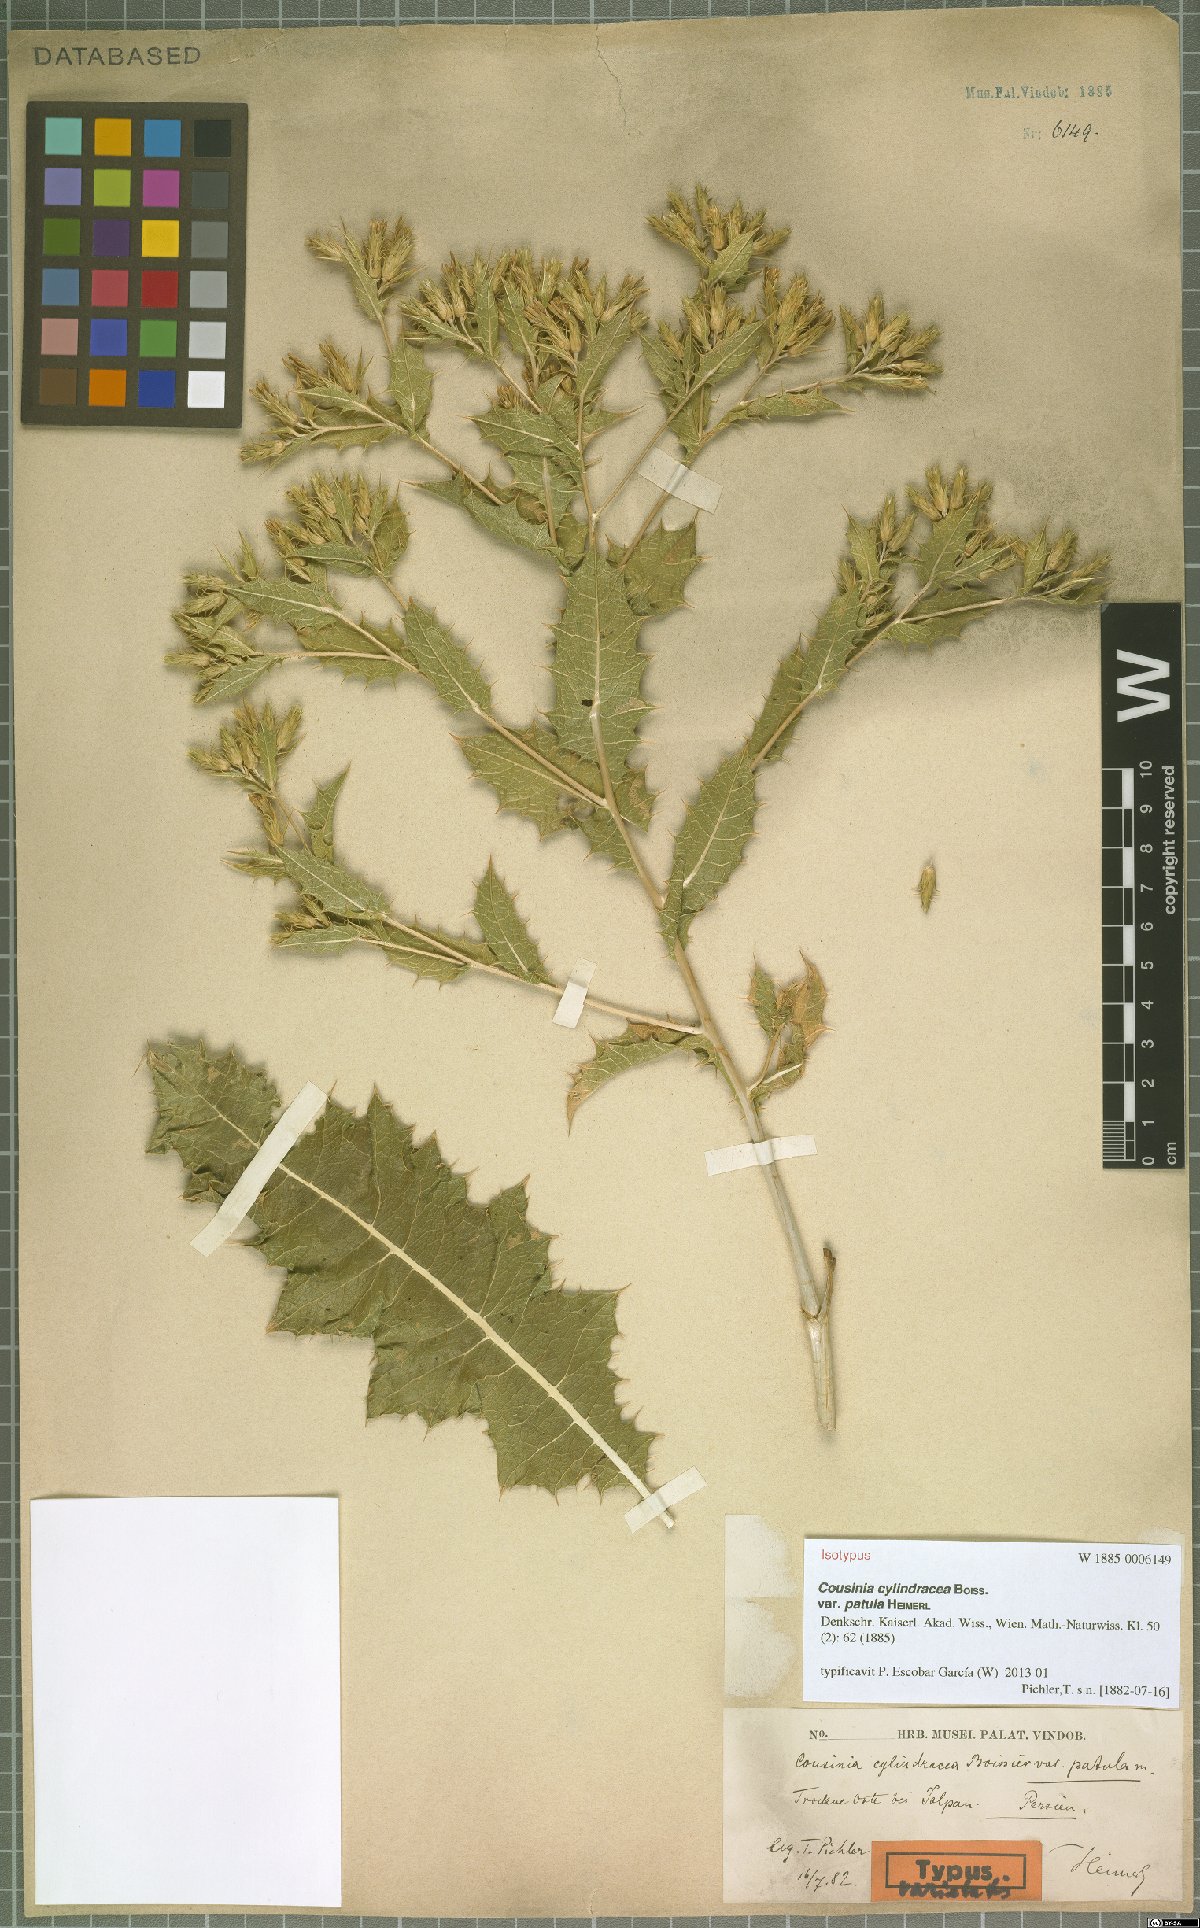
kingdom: Plantae
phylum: Tracheophyta
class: Magnoliopsida
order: Asterales
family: Asteraceae
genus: Cousinia
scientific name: Cousinia cylindracea
